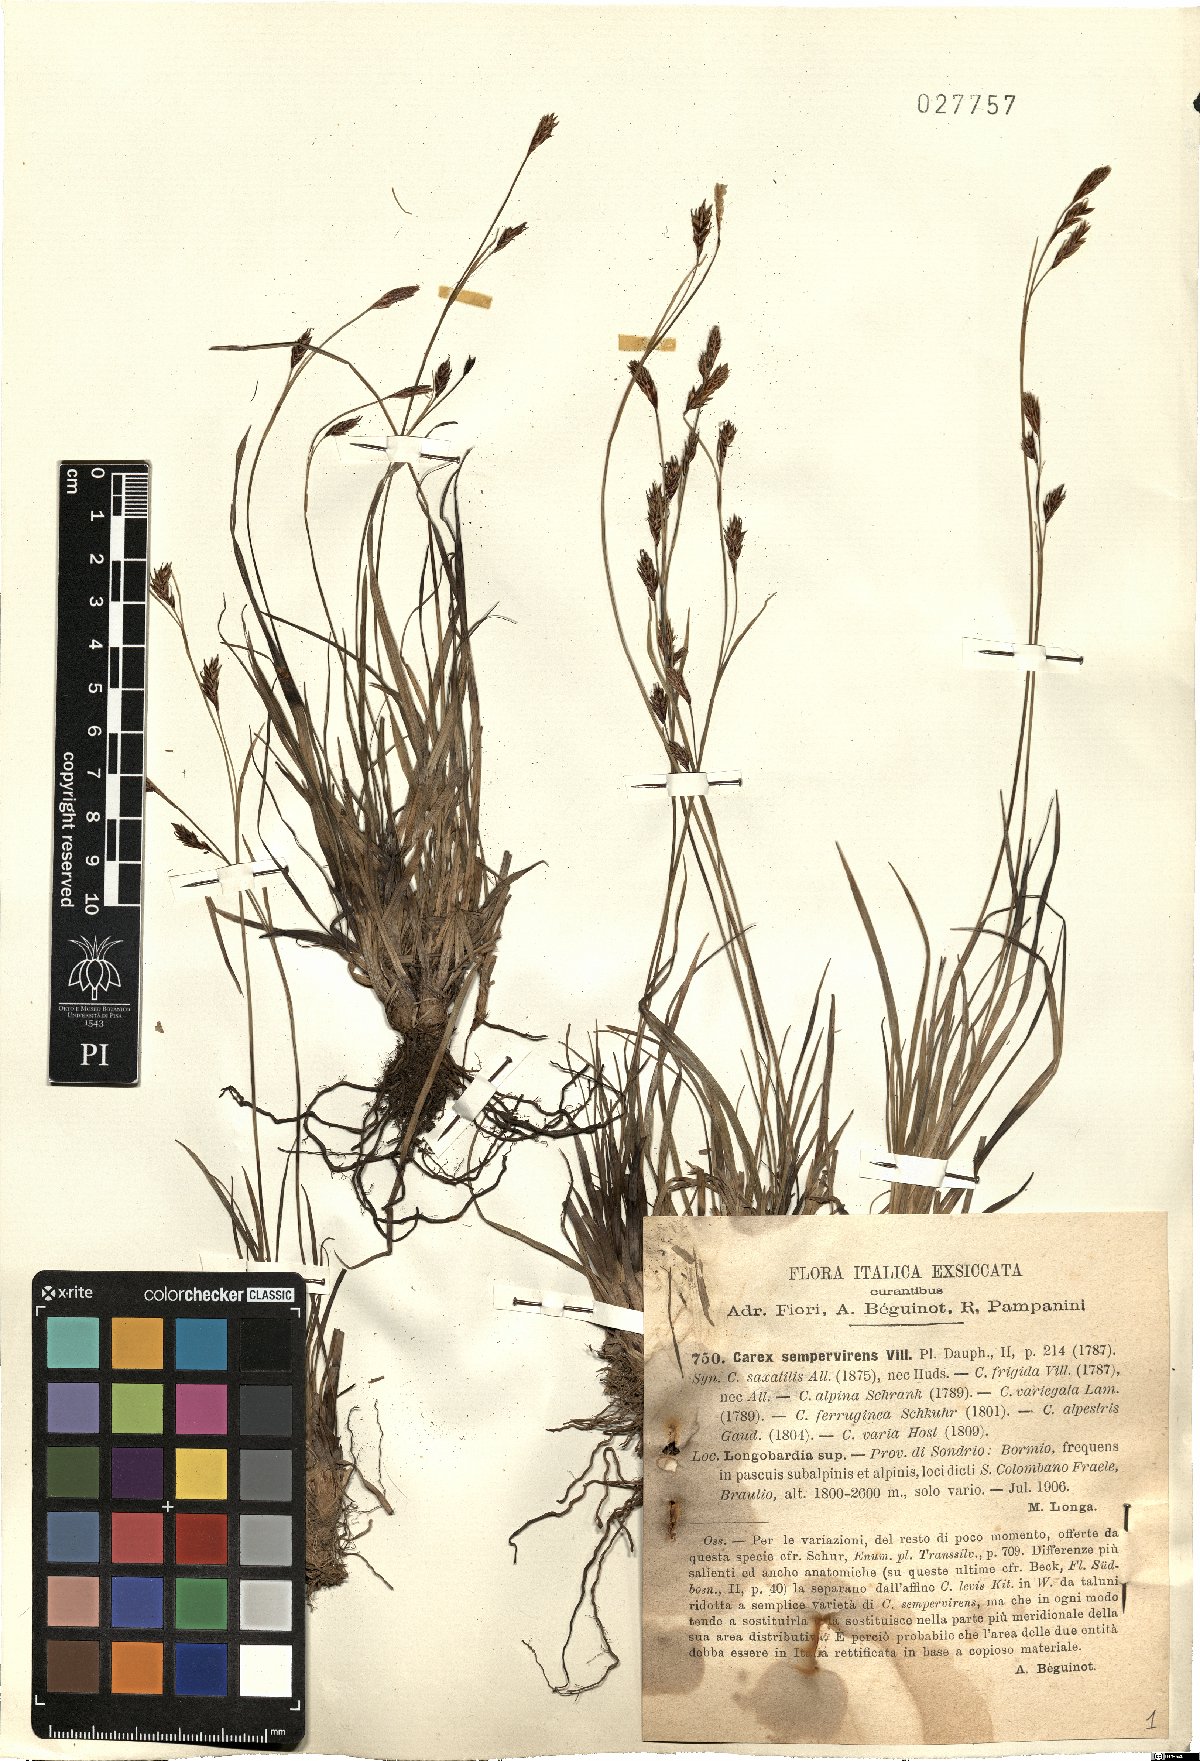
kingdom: Plantae
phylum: Tracheophyta
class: Liliopsida
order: Poales
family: Cyperaceae
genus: Carex
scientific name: Carex sempervirens
